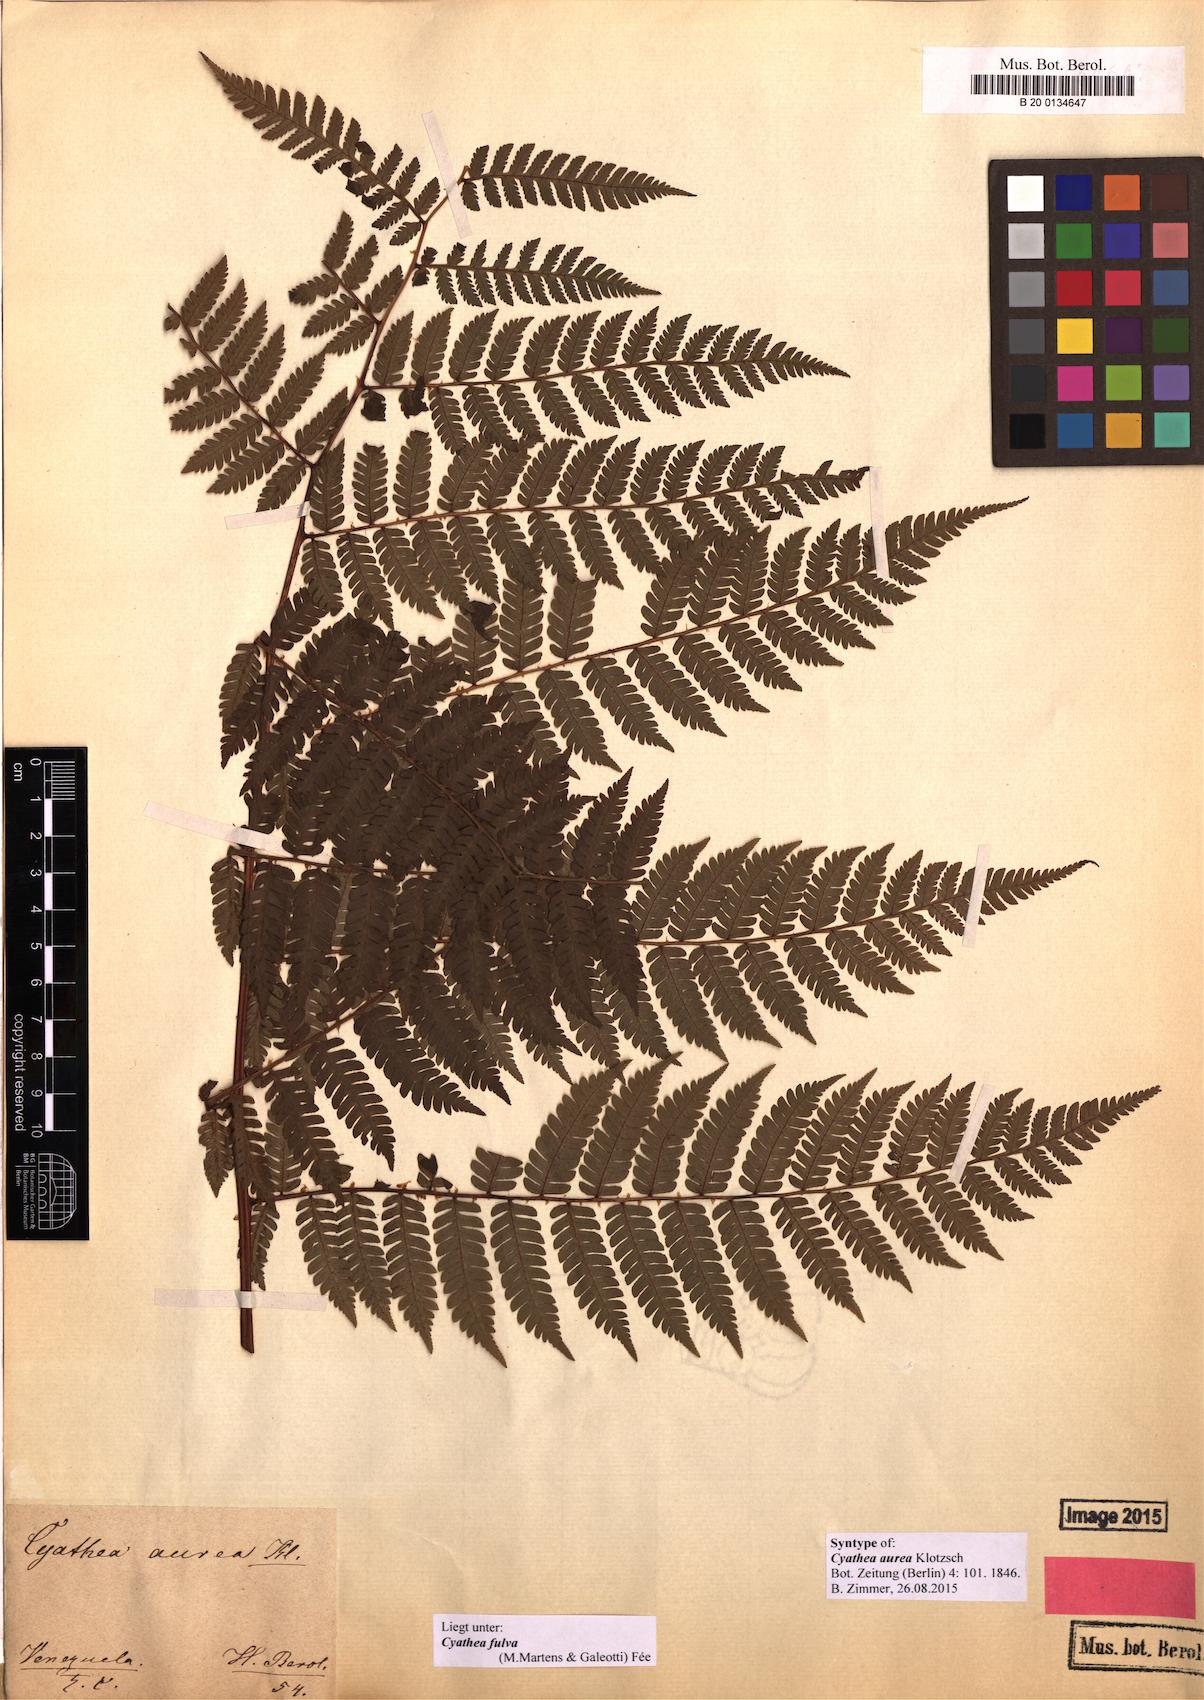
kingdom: Plantae
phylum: Tracheophyta
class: Polypodiopsida
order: Cyatheales
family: Cyatheaceae
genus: Cyathea
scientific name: Cyathea fulva
